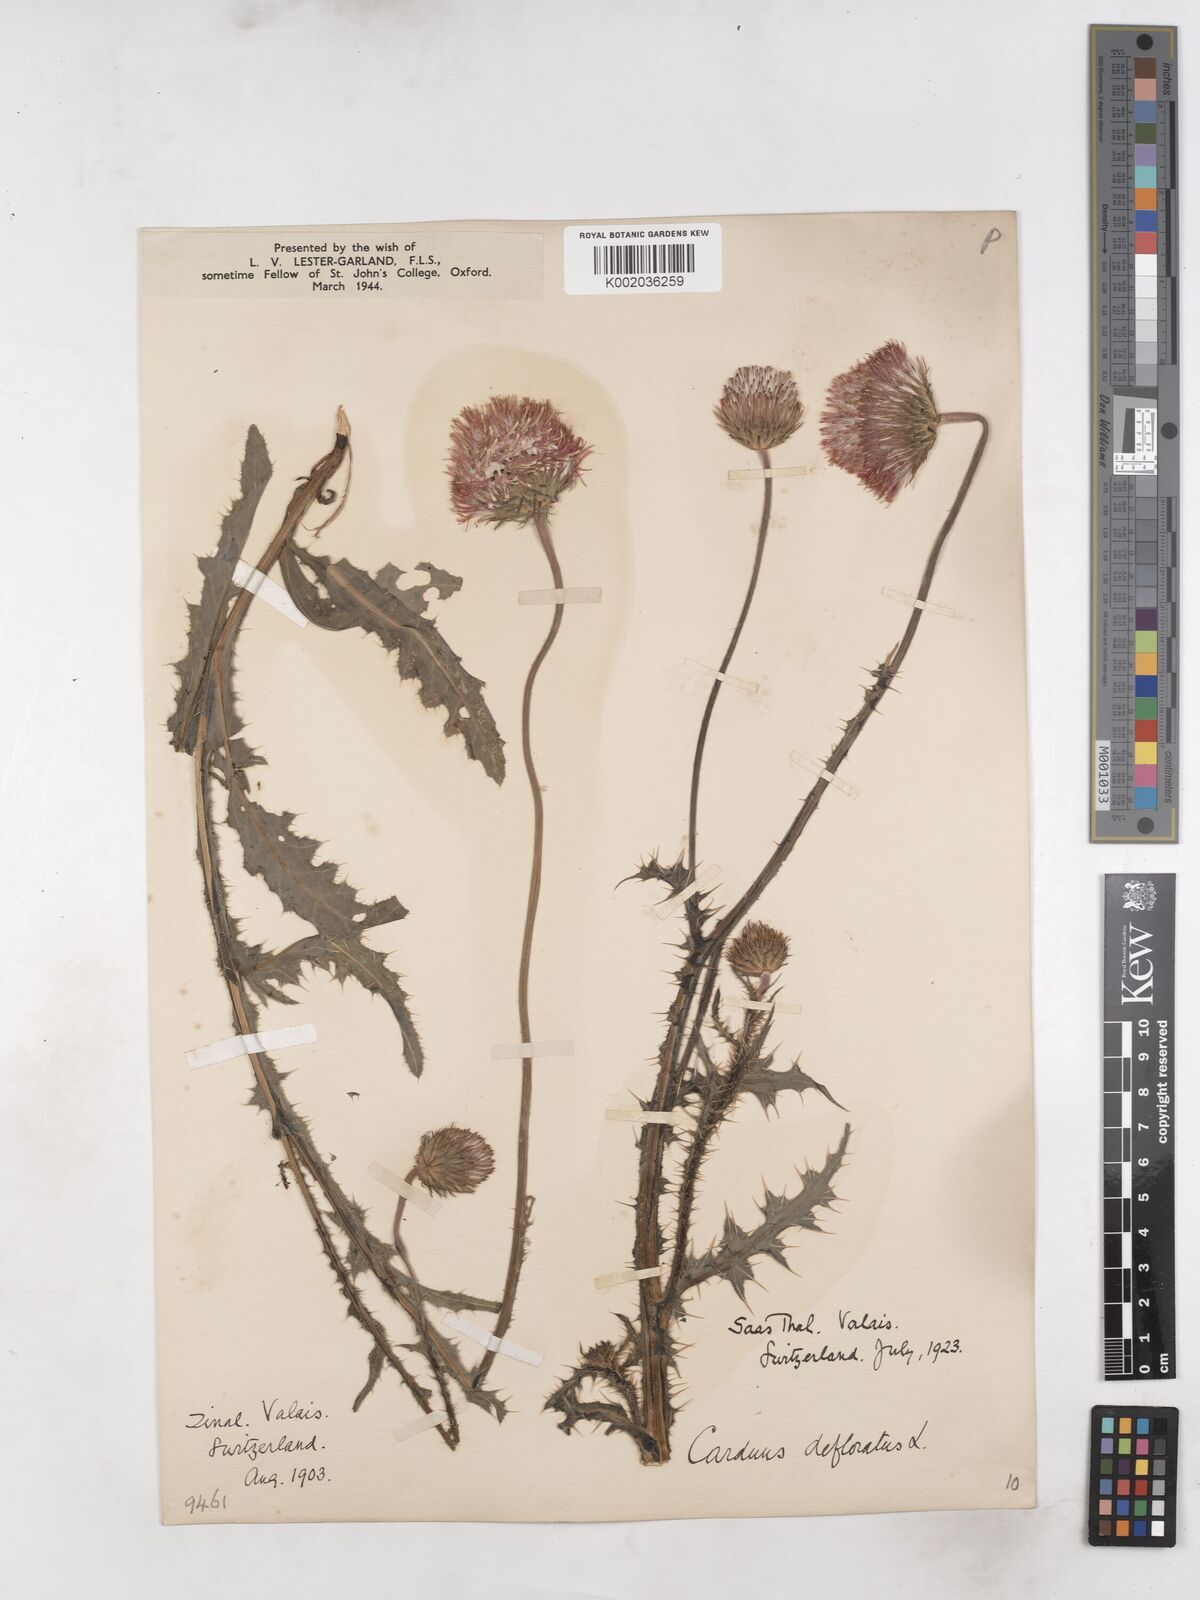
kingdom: Plantae
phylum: Tracheophyta
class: Magnoliopsida
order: Asterales
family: Asteraceae
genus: Carduus
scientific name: Carduus defloratus
